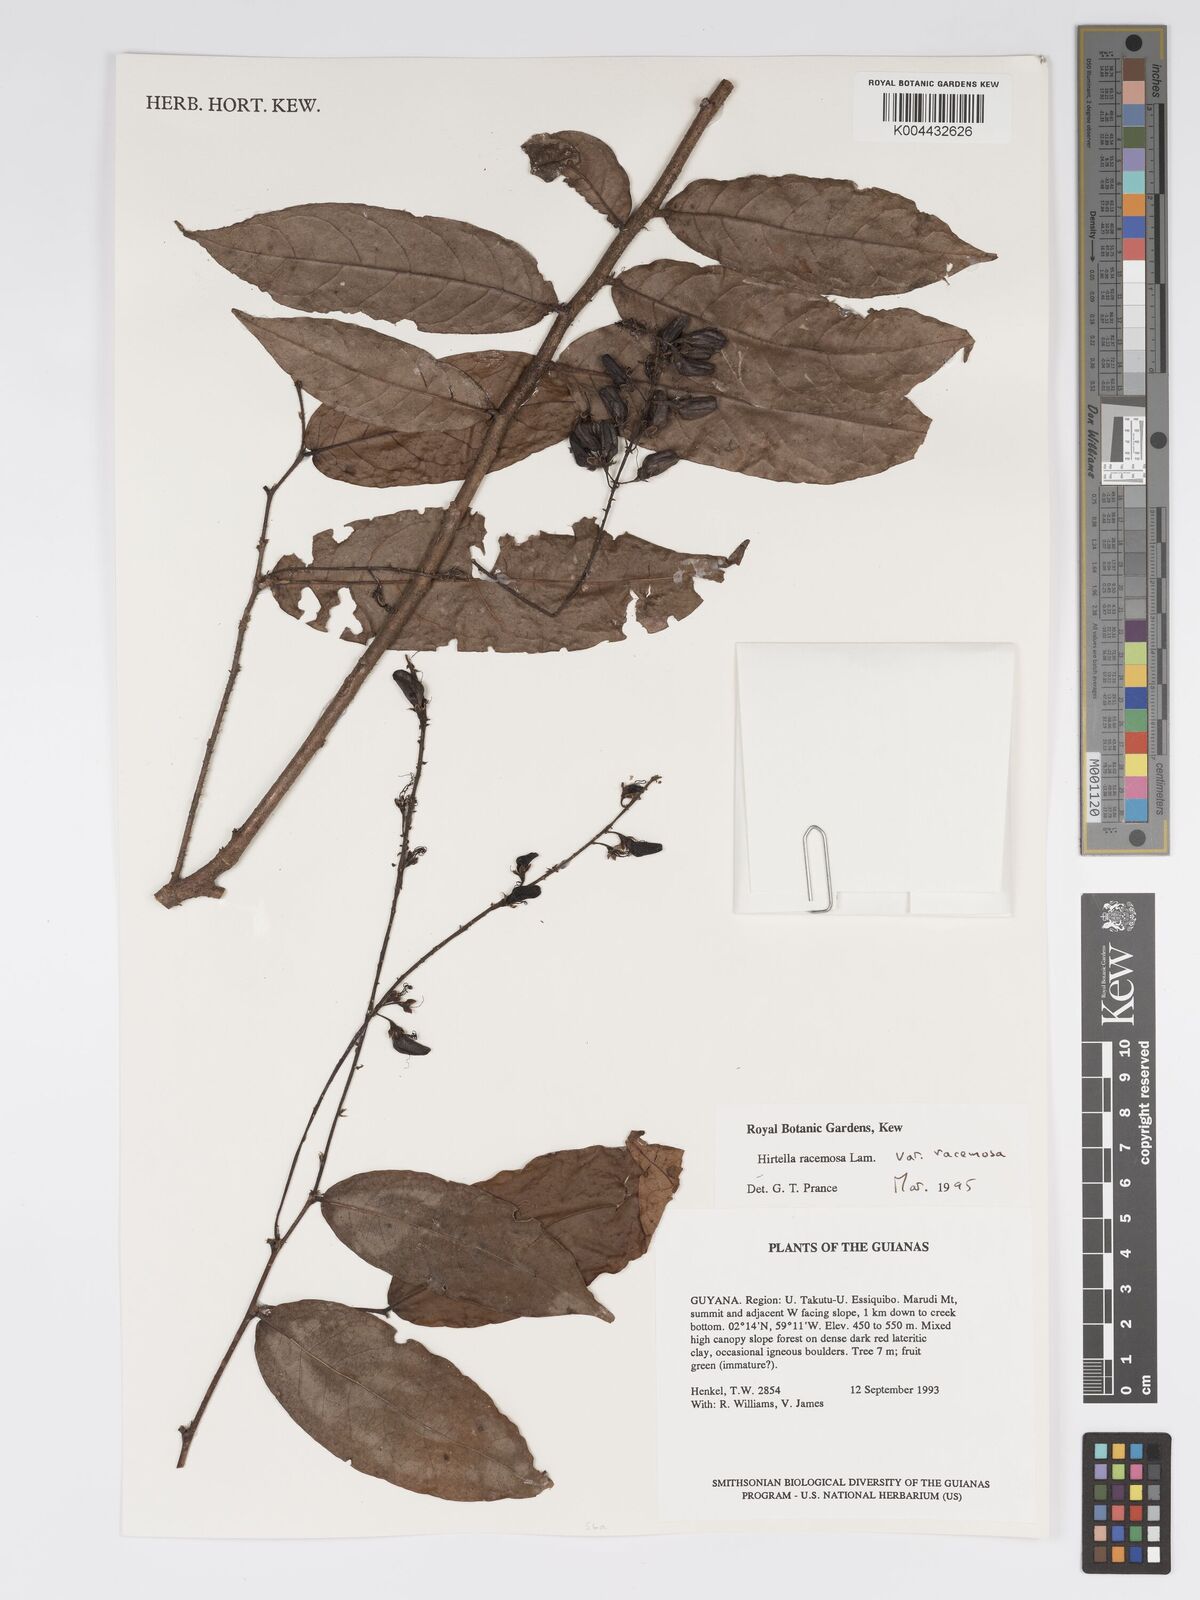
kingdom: Plantae
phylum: Tracheophyta
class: Magnoliopsida
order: Malpighiales
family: Chrysobalanaceae
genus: Hirtella
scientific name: Hirtella racemosa
